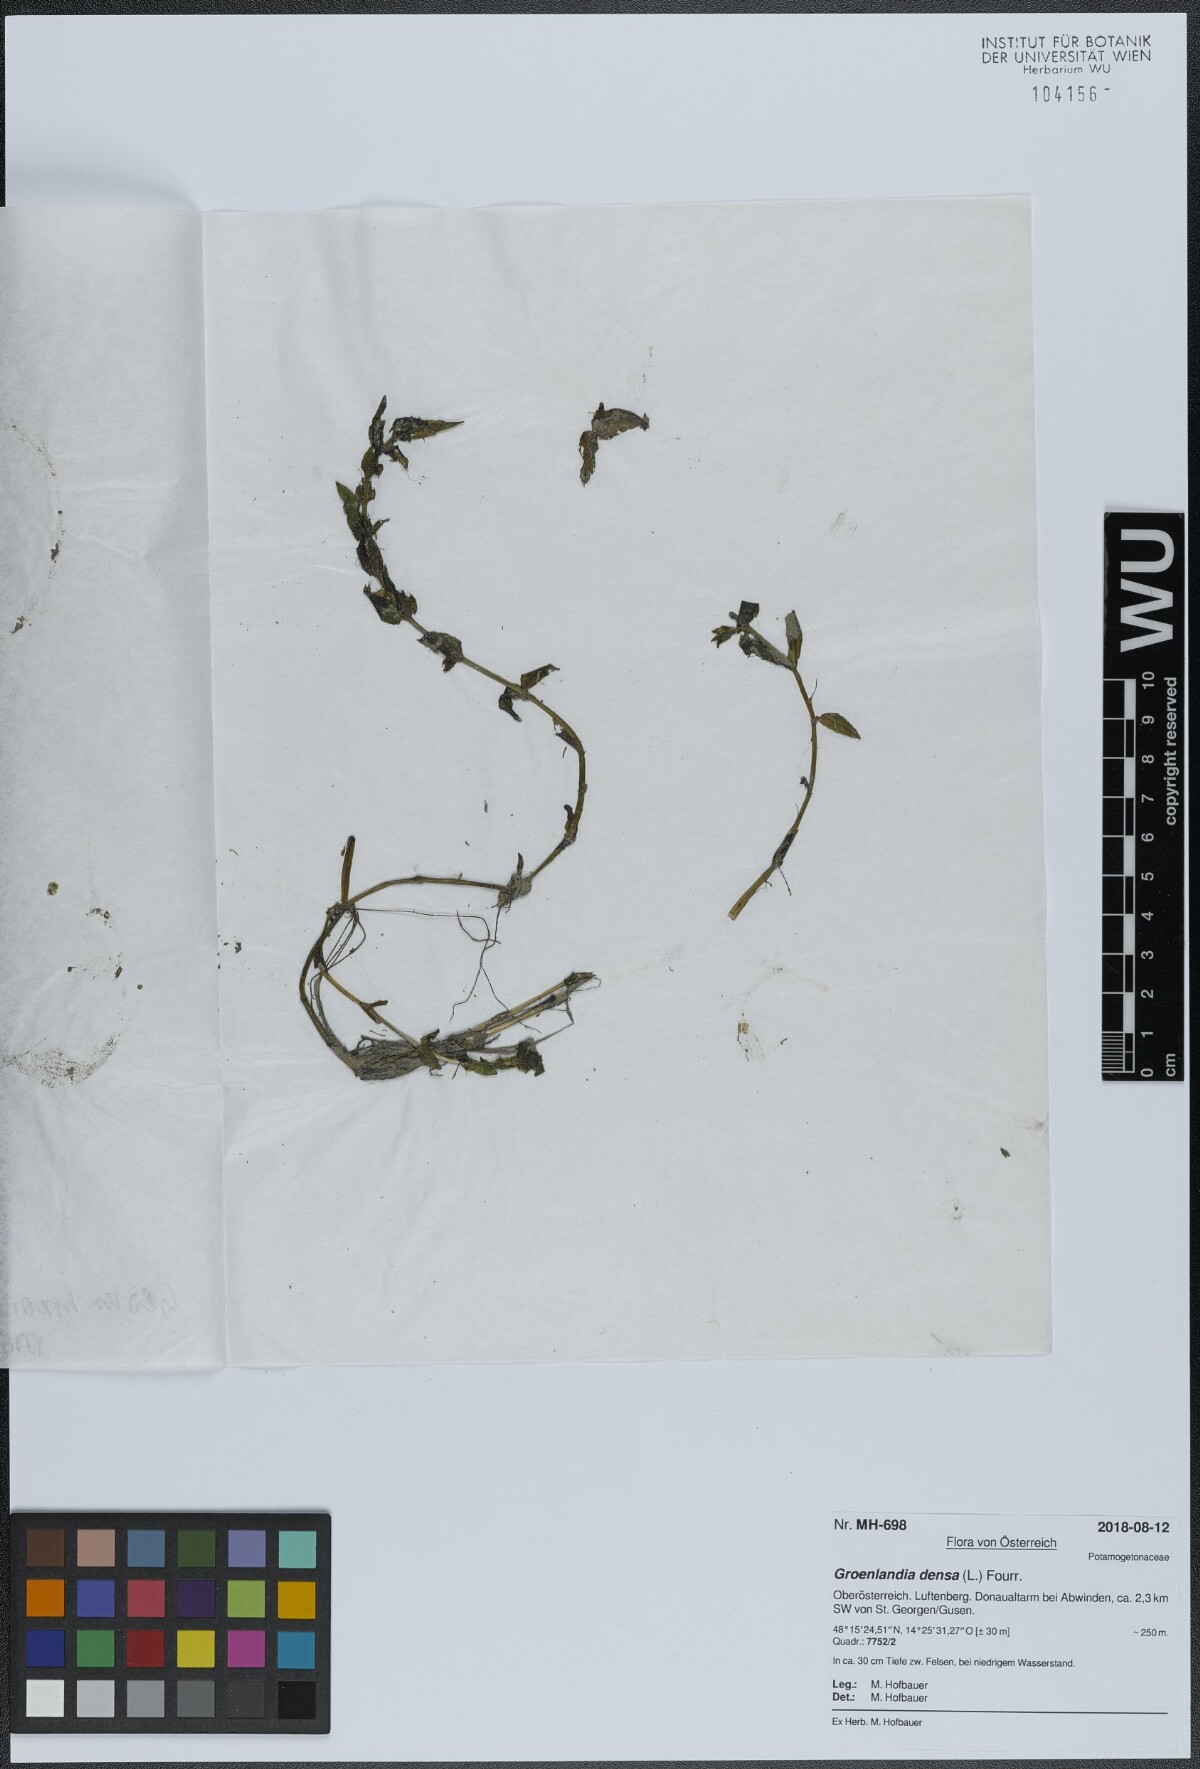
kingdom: Plantae
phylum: Tracheophyta
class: Liliopsida
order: Alismatales
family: Potamogetonaceae
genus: Groenlandia
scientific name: Groenlandia densa
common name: Opposite-leaved pondweed
